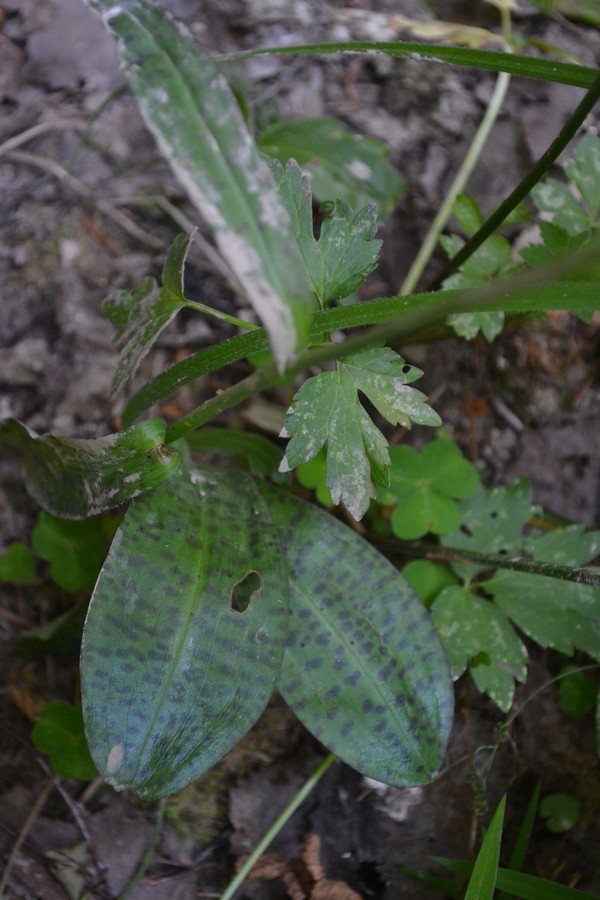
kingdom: Plantae
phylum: Tracheophyta
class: Liliopsida
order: Asparagales
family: Orchidaceae
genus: Dactylorhiza
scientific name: Dactylorhiza maculata
